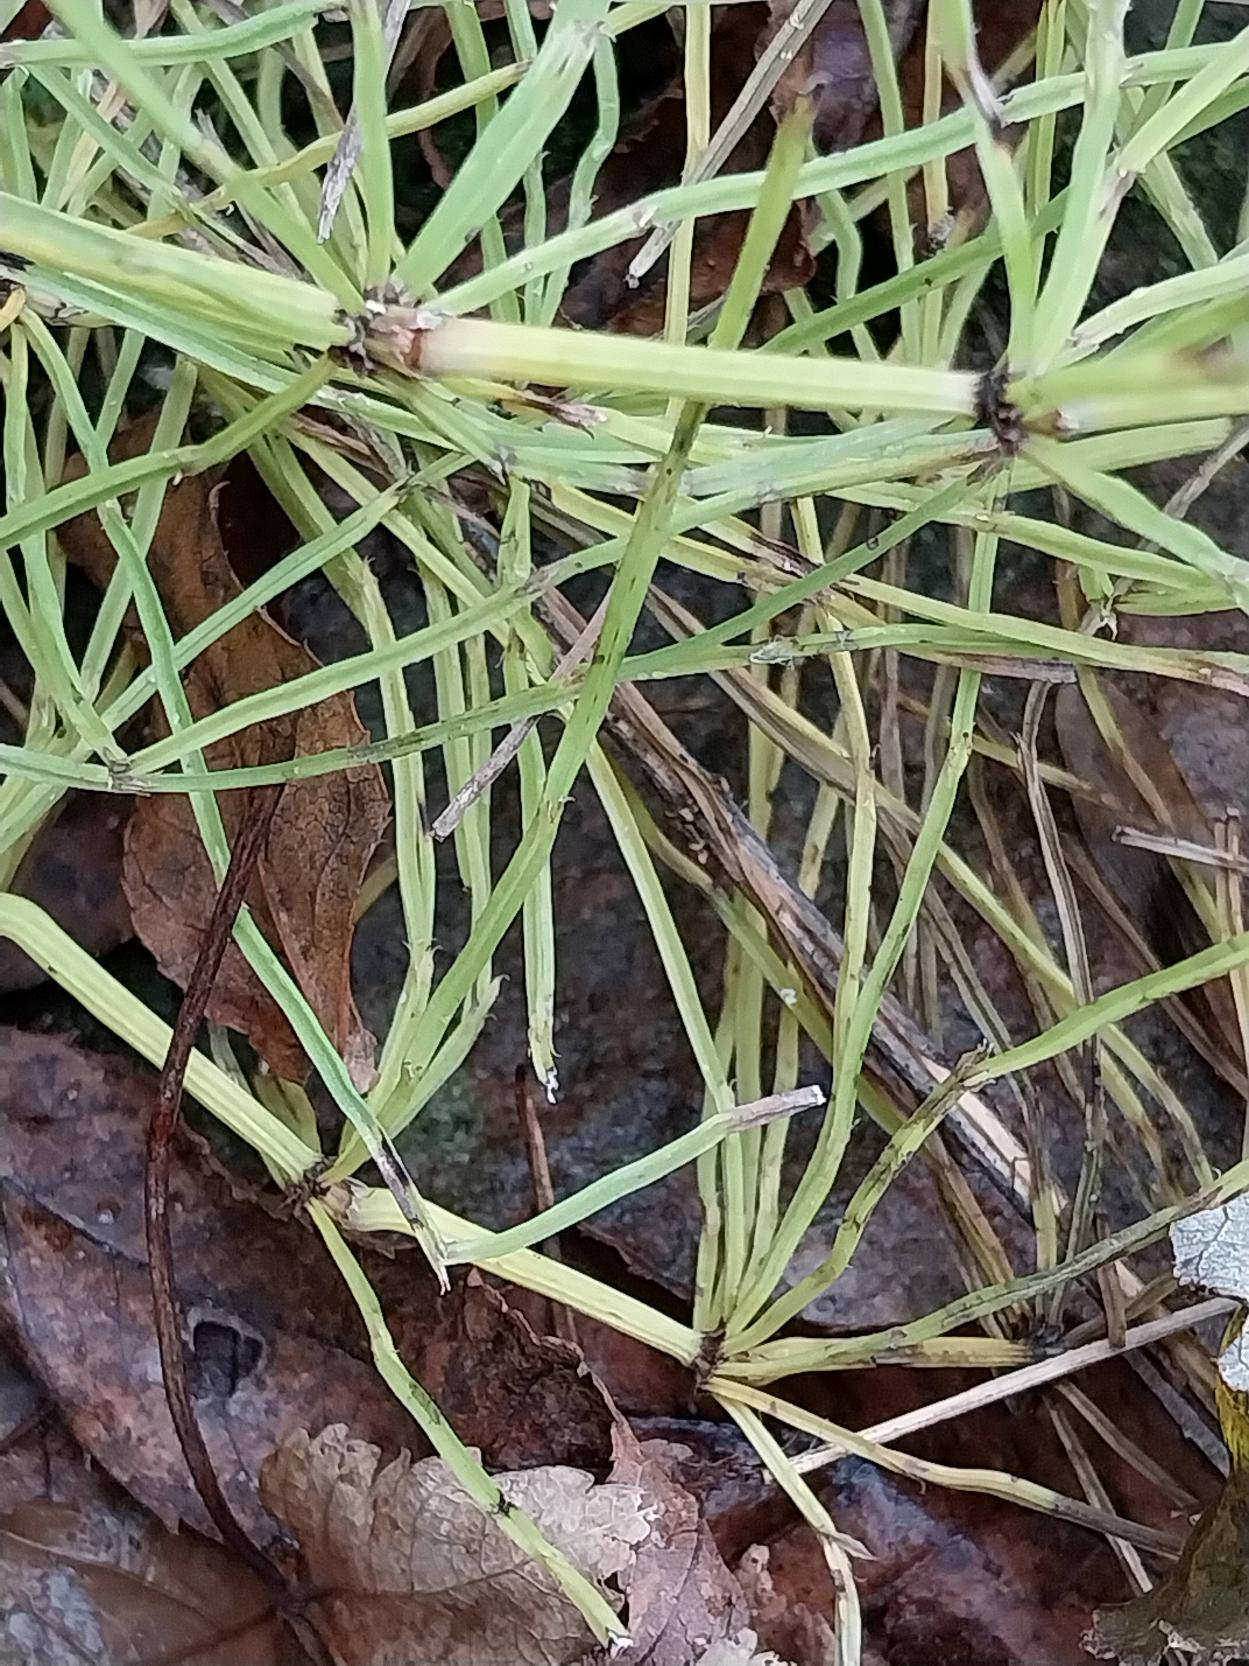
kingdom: Plantae
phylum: Tracheophyta
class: Polypodiopsida
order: Equisetales
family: Equisetaceae
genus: Equisetum
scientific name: Equisetum arvense
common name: Ager-padderok
